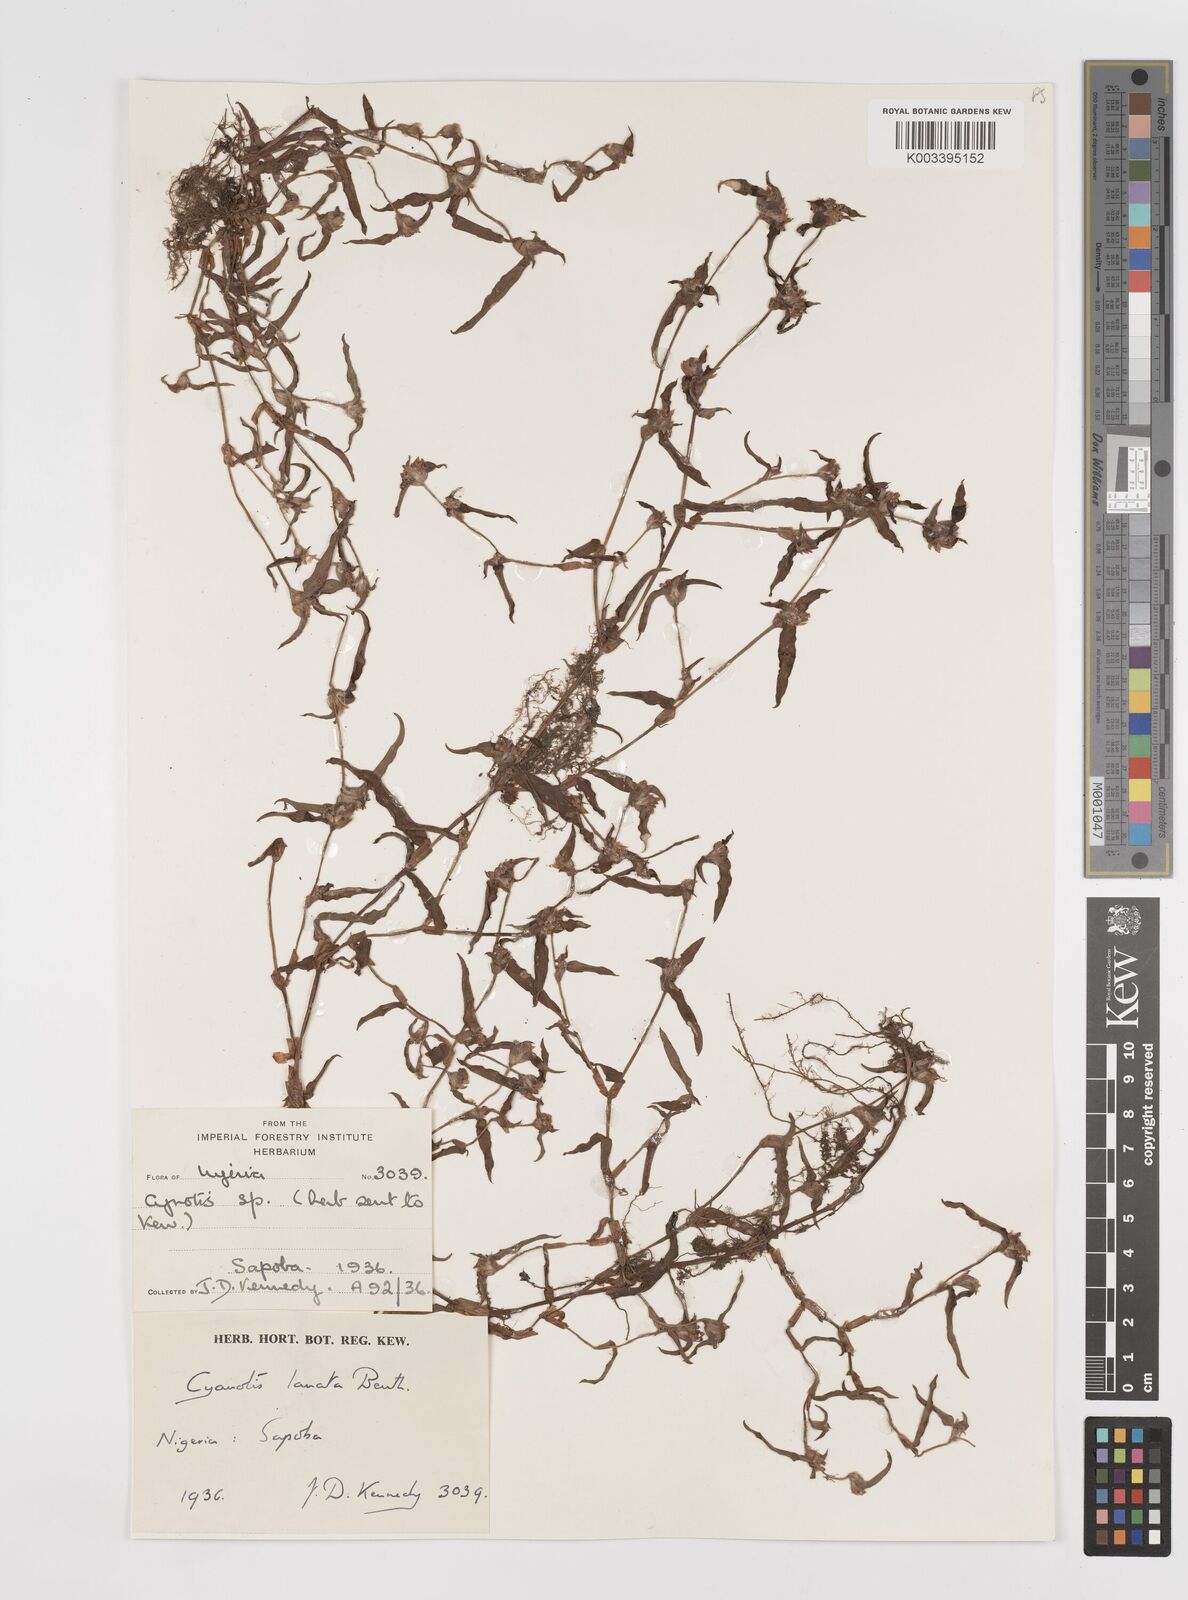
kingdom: Plantae
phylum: Tracheophyta
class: Liliopsida
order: Commelinales
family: Commelinaceae
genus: Cyanotis
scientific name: Cyanotis lanata
